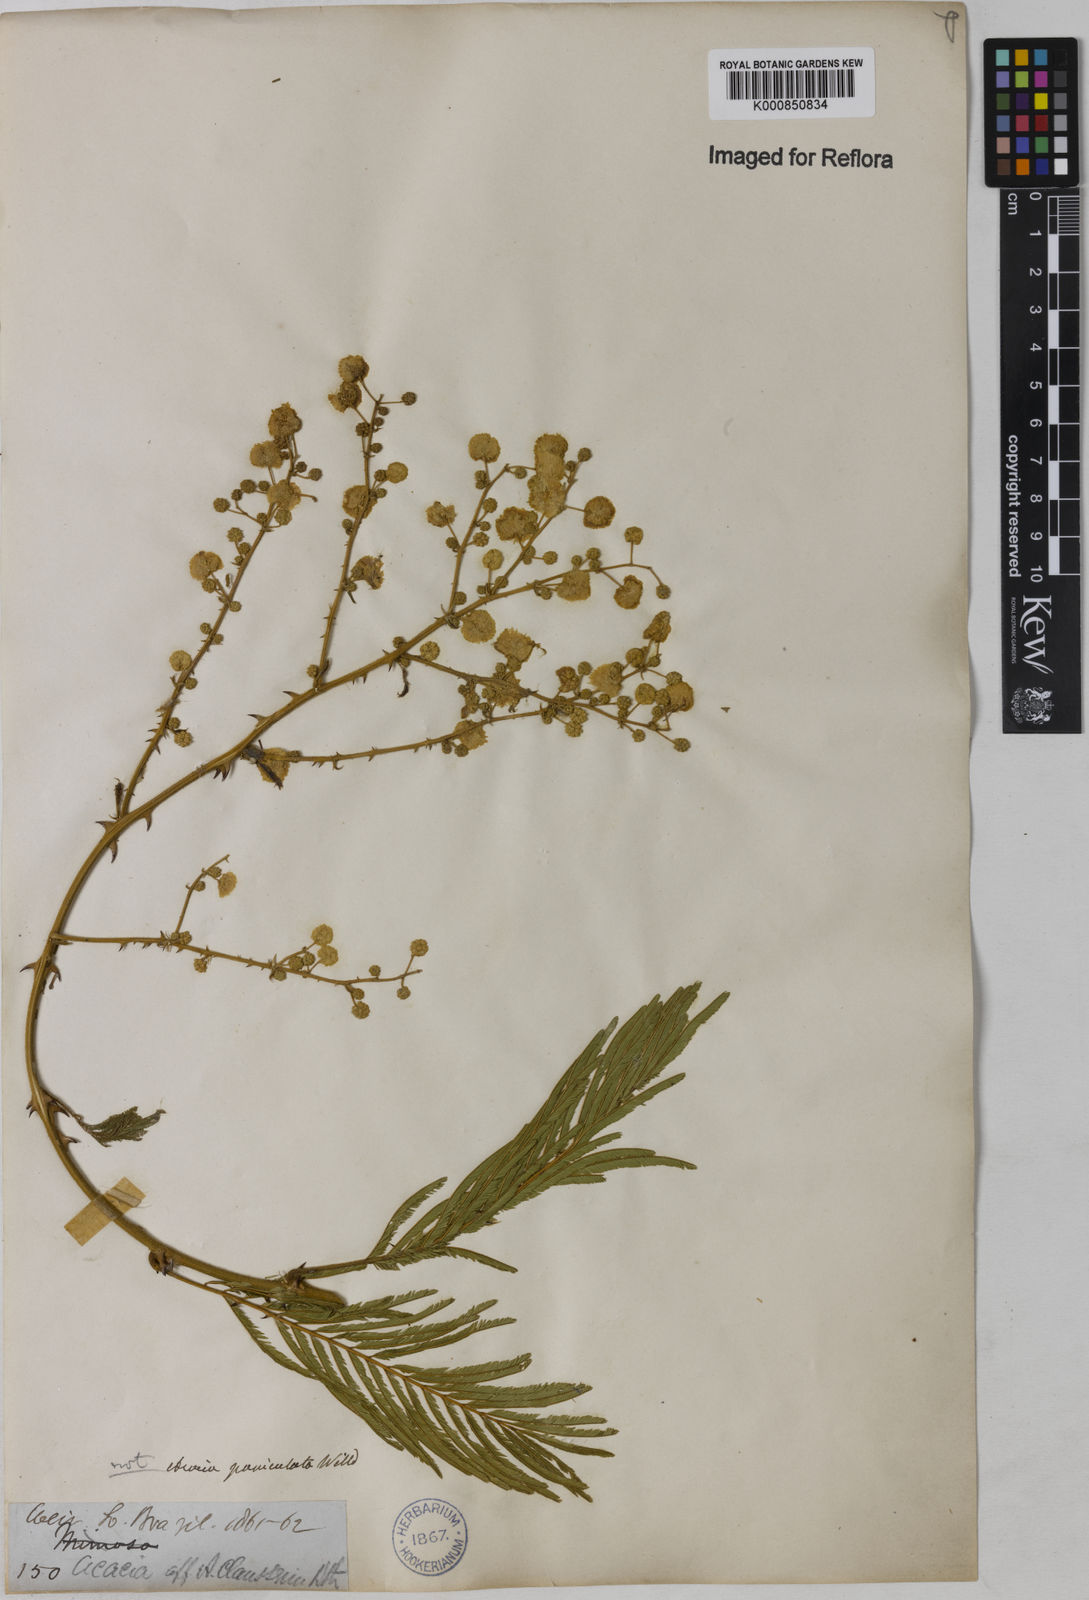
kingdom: Plantae
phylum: Tracheophyta
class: Magnoliopsida
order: Fabales
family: Fabaceae
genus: Senegalia
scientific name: Senegalia tenuifolia
